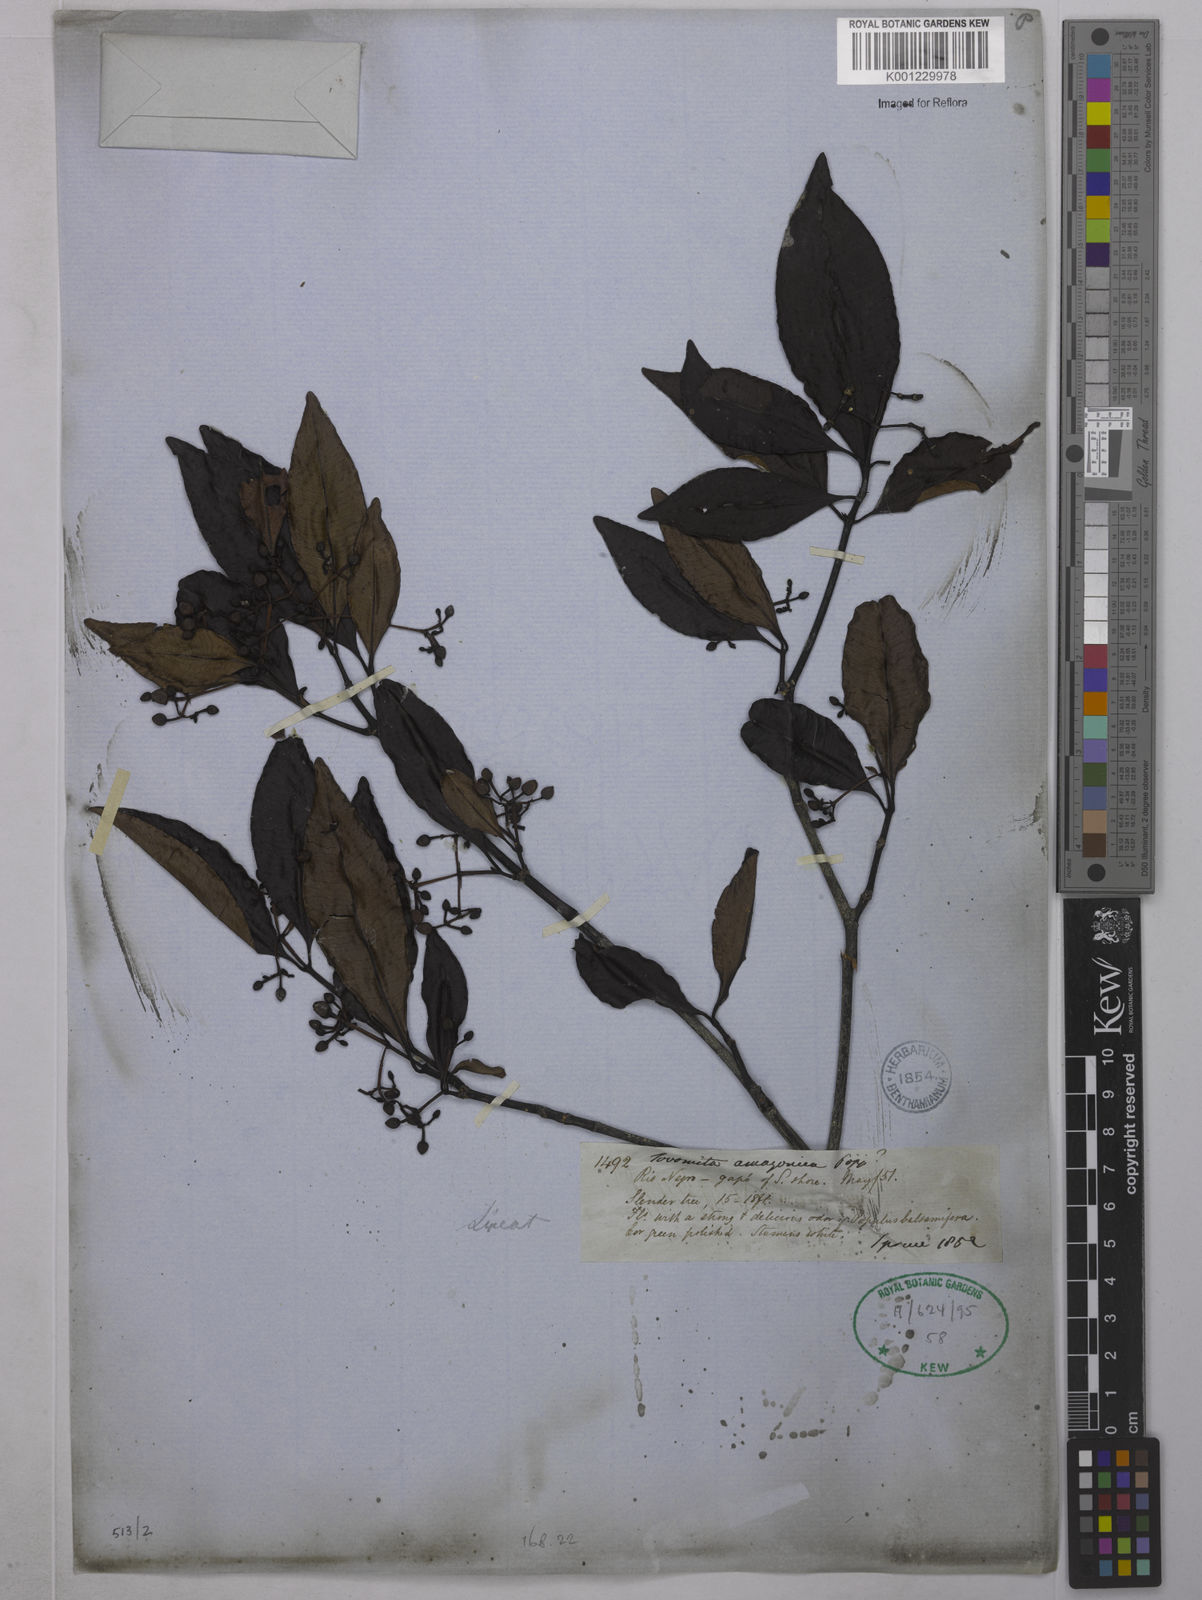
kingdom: Plantae
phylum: Tracheophyta
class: Magnoliopsida
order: Malpighiales
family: Clusiaceae
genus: Tovomita
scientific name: Tovomita amazonica
